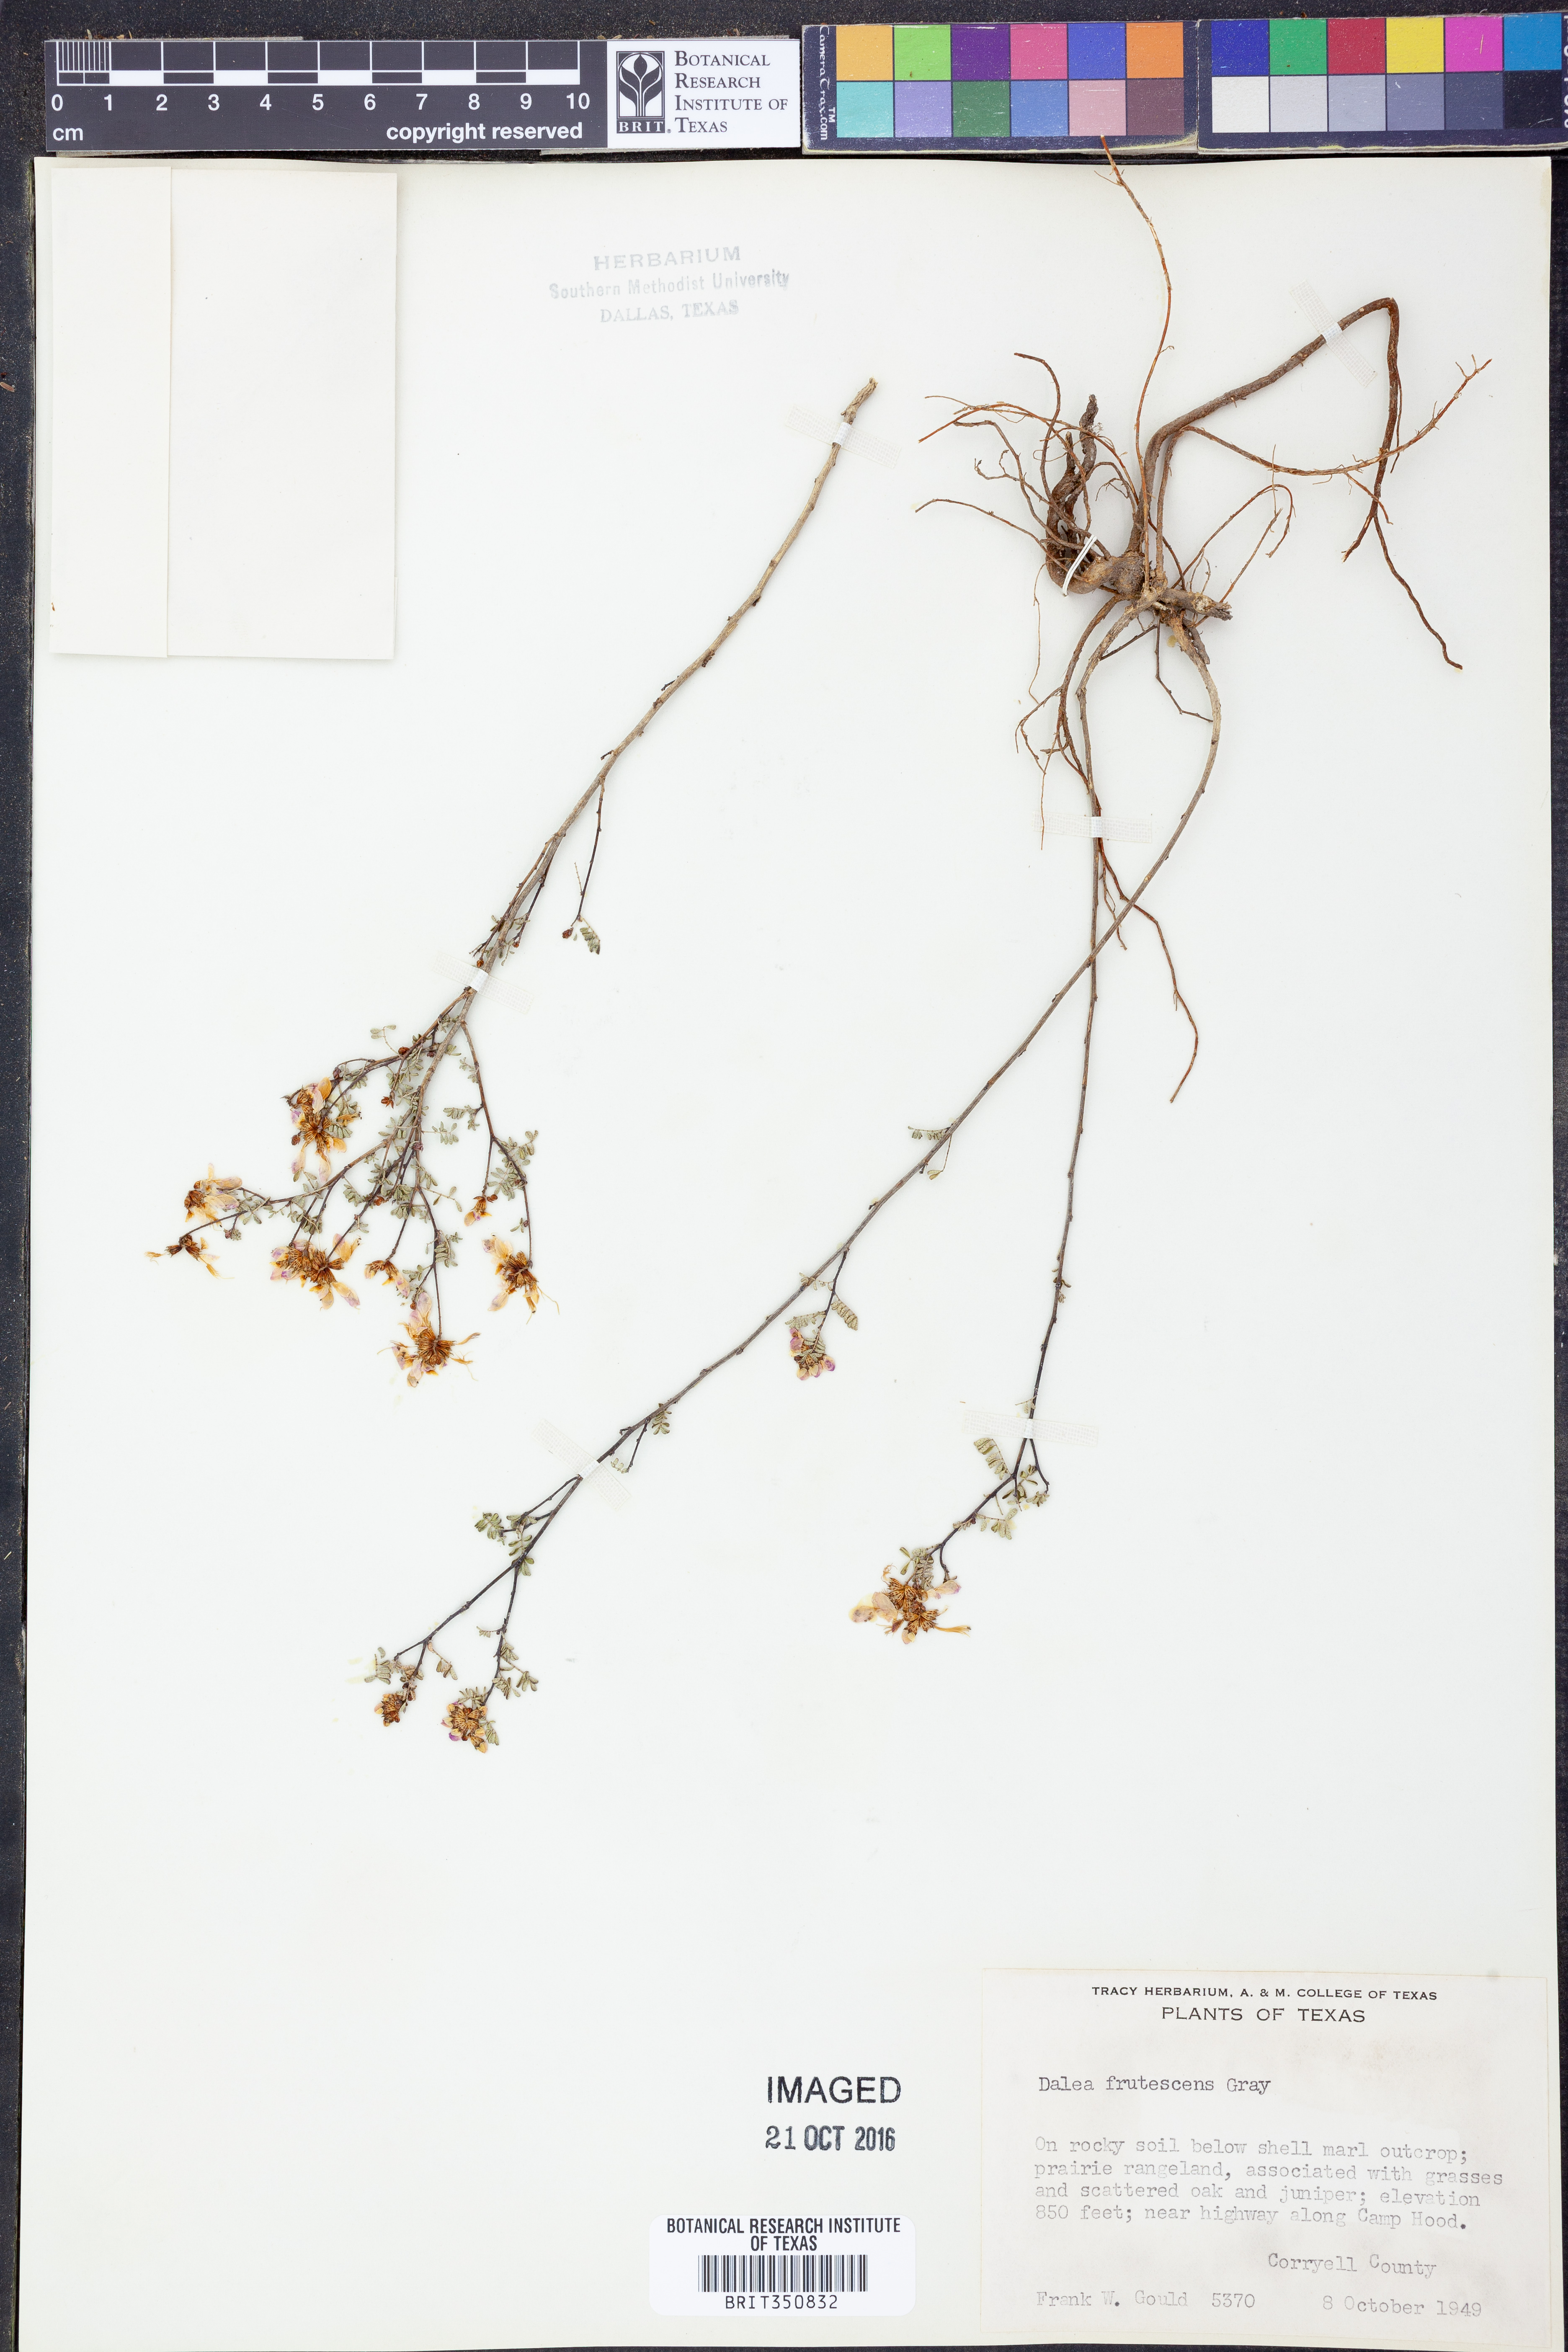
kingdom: Plantae
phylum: Tracheophyta
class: Magnoliopsida
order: Fabales
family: Fabaceae
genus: Dalea
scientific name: Dalea frutescens
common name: Black dalea
